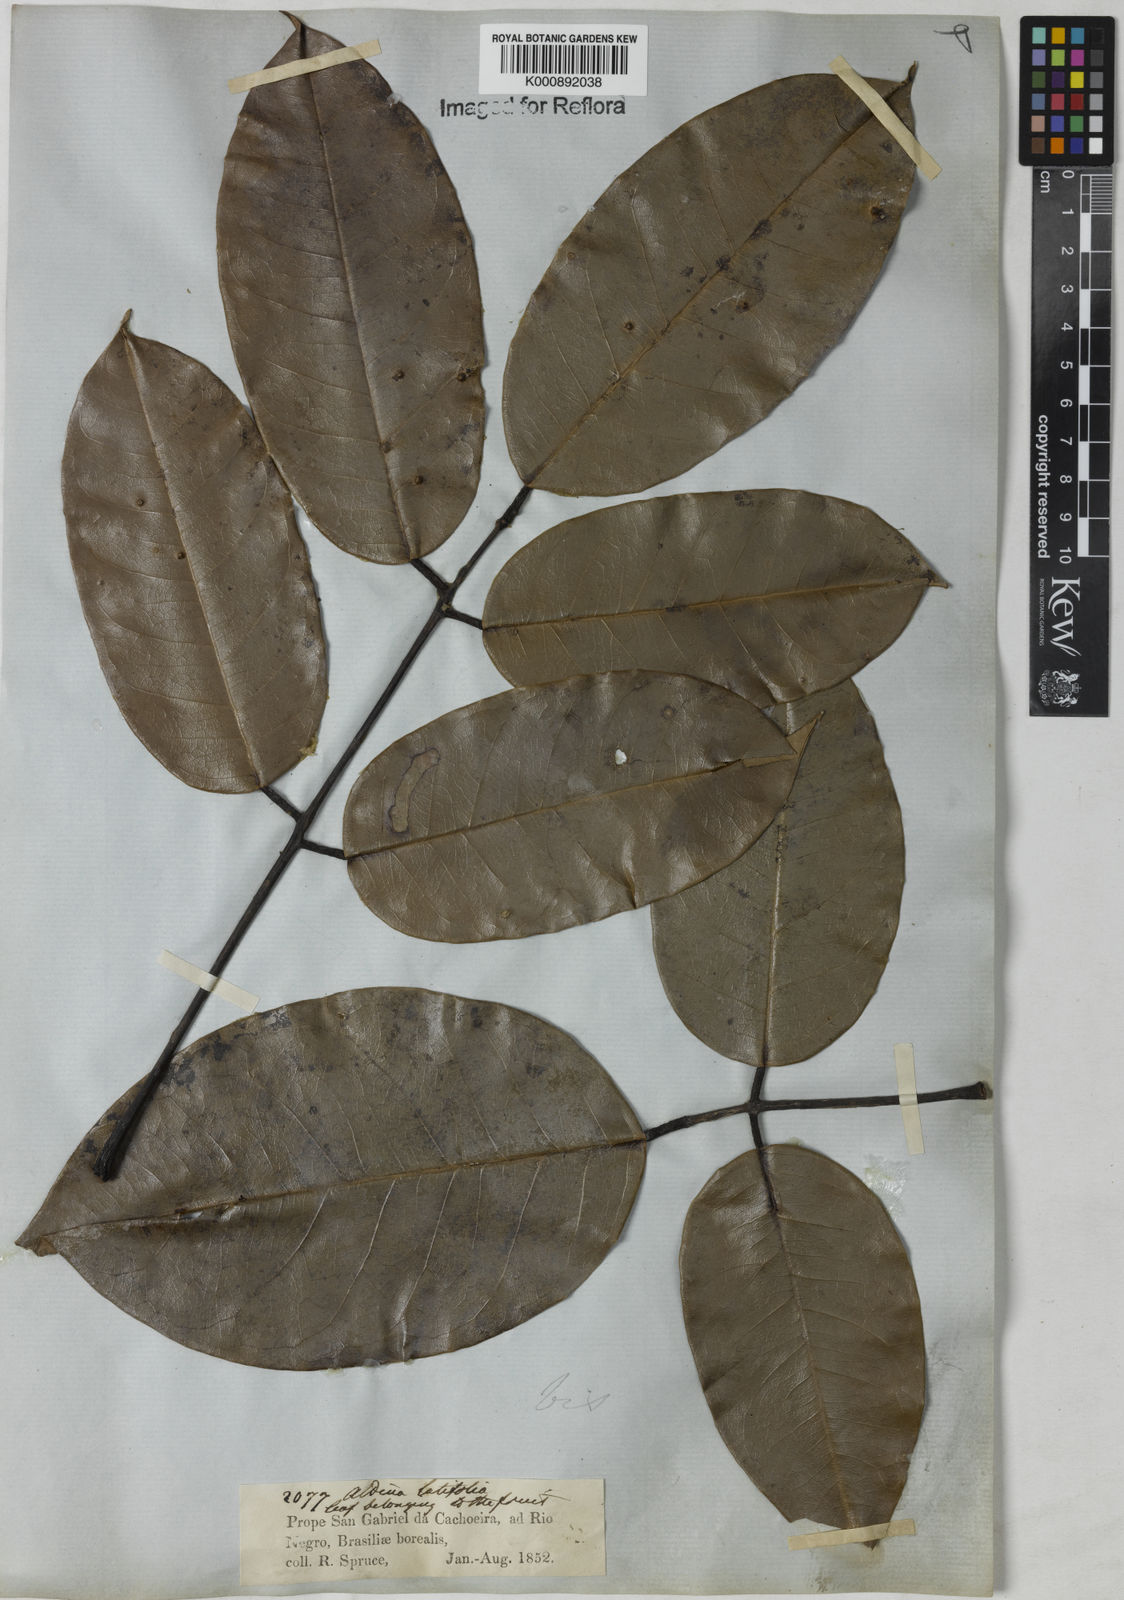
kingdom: Plantae
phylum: Tracheophyta
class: Magnoliopsida
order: Fabales
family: Fabaceae
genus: Aldina
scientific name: Aldina latifolia
